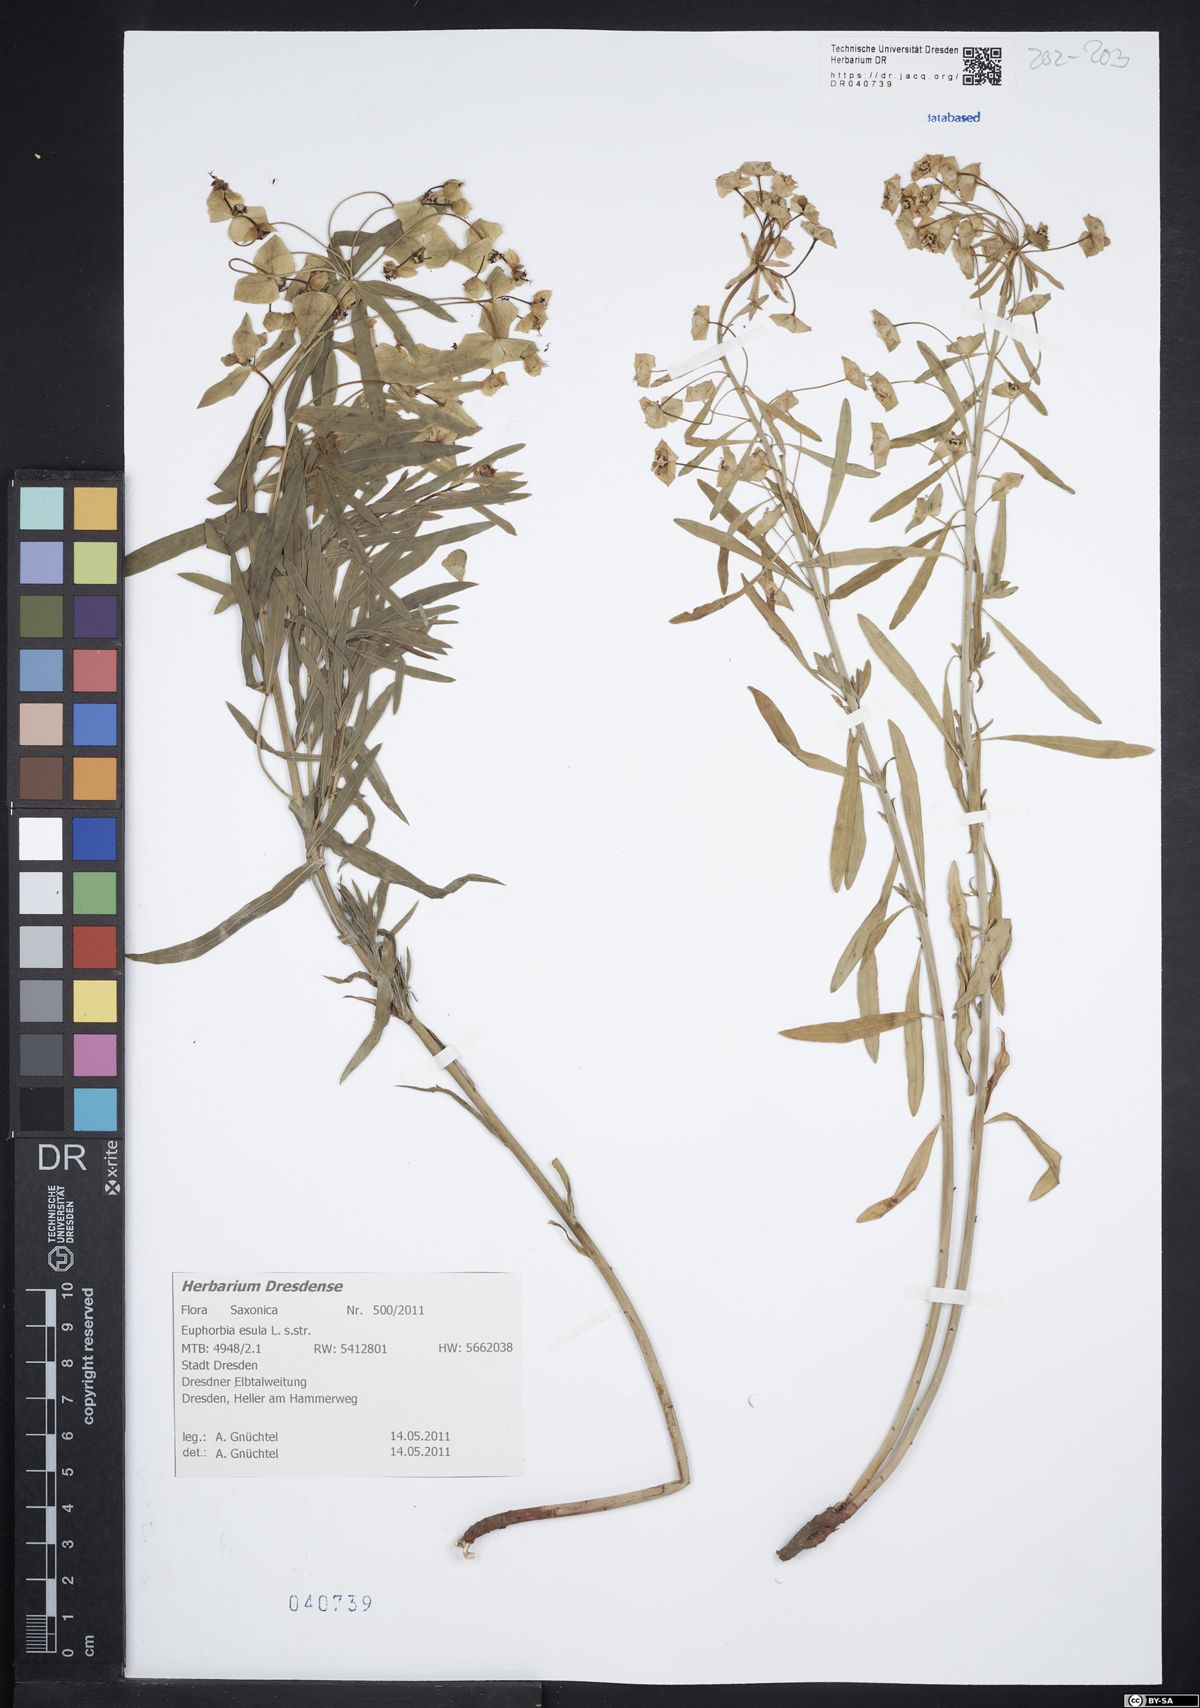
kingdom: Plantae
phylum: Tracheophyta
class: Magnoliopsida
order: Malpighiales
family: Euphorbiaceae
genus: Euphorbia
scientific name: Euphorbia esula
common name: Leafy spurge
